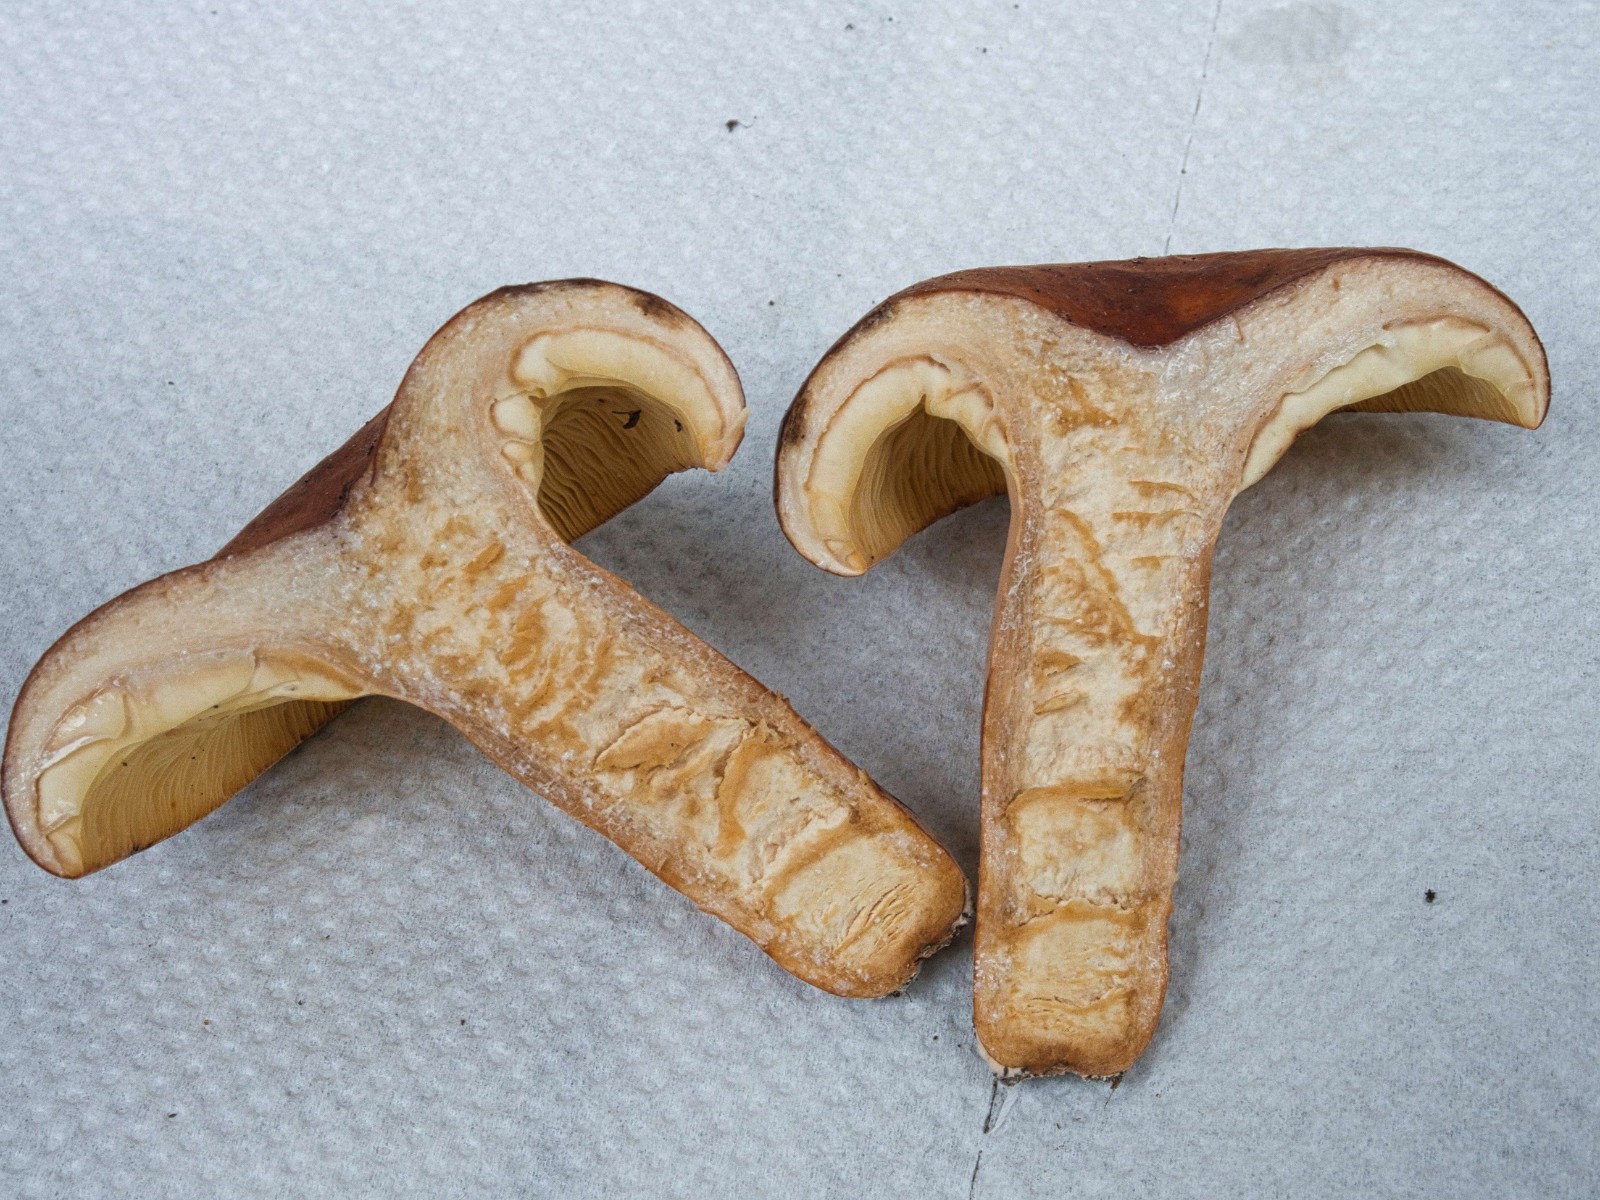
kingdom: Fungi
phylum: Basidiomycota
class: Agaricomycetes
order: Russulales
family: Russulaceae
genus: Lactifluus
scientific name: Lactifluus volemus
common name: spiselig mælkehat
